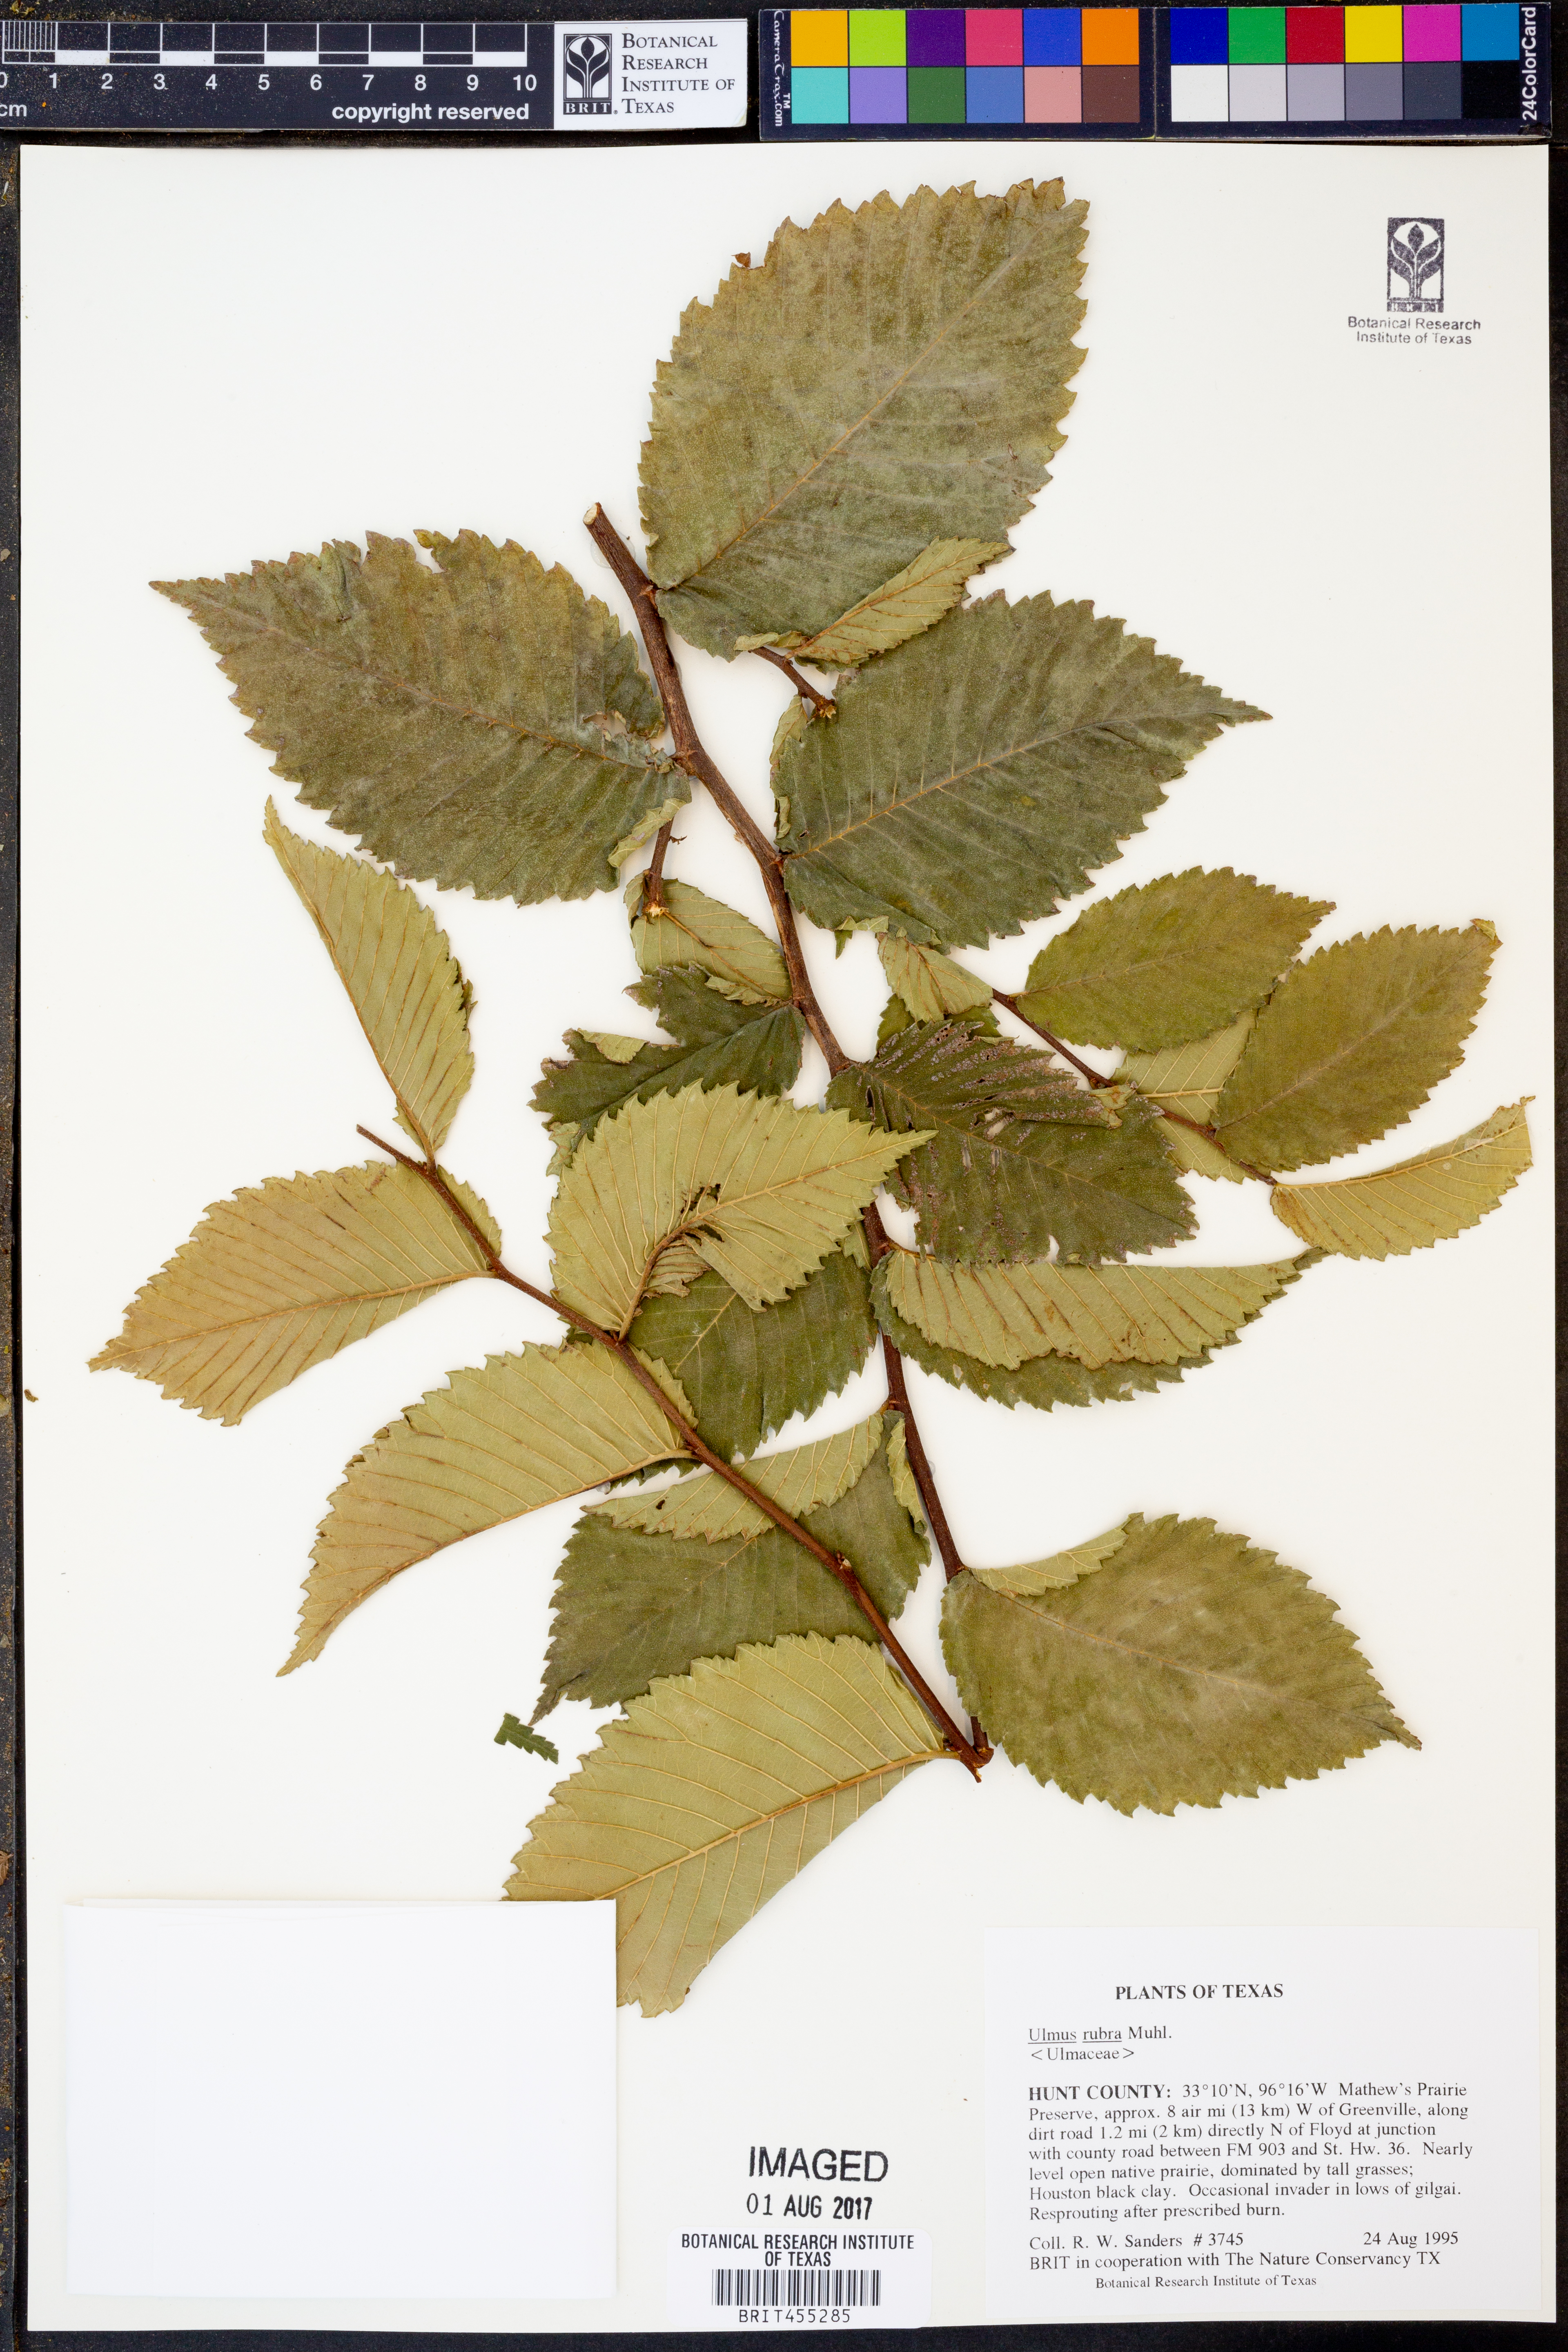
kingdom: Plantae
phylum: Tracheophyta
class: Magnoliopsida
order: Rosales
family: Ulmaceae
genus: Ulmus
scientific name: Ulmus rubra
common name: Slippery elm
